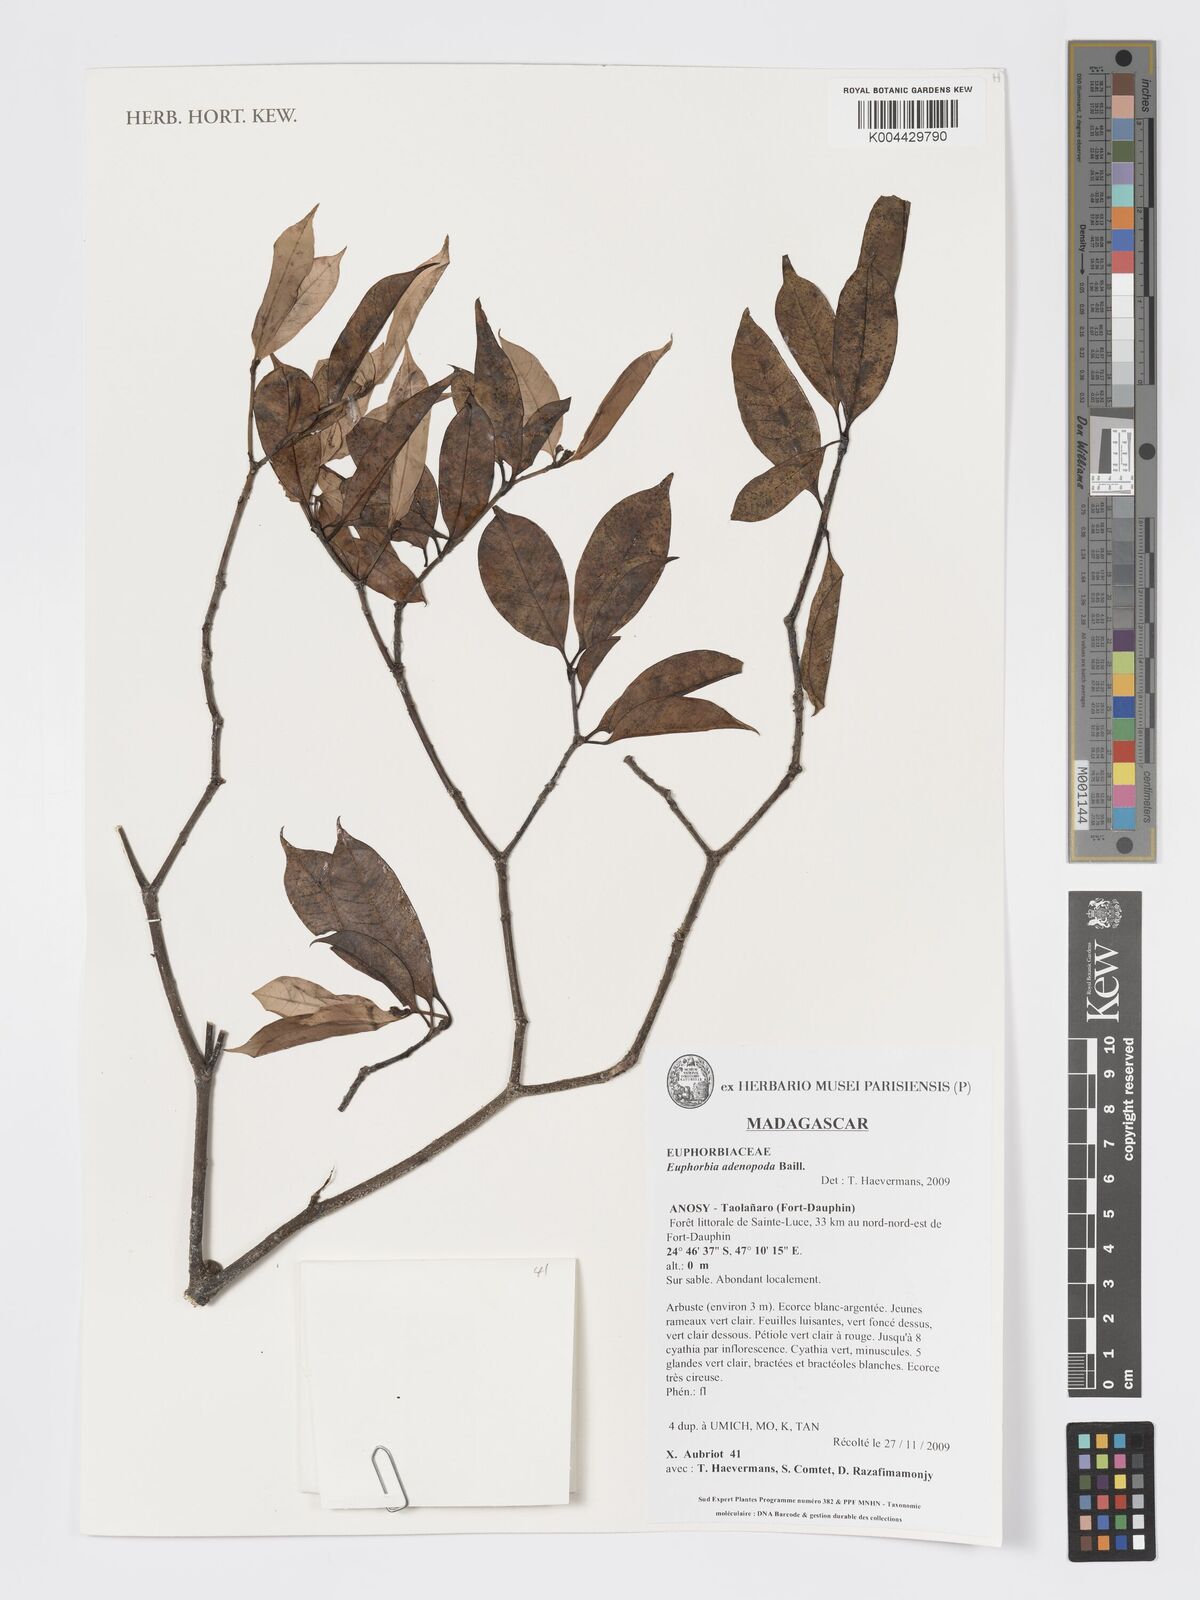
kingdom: Plantae
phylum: Tracheophyta
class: Magnoliopsida
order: Malpighiales
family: Euphorbiaceae
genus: Euphorbia
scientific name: Euphorbia adenopoda
